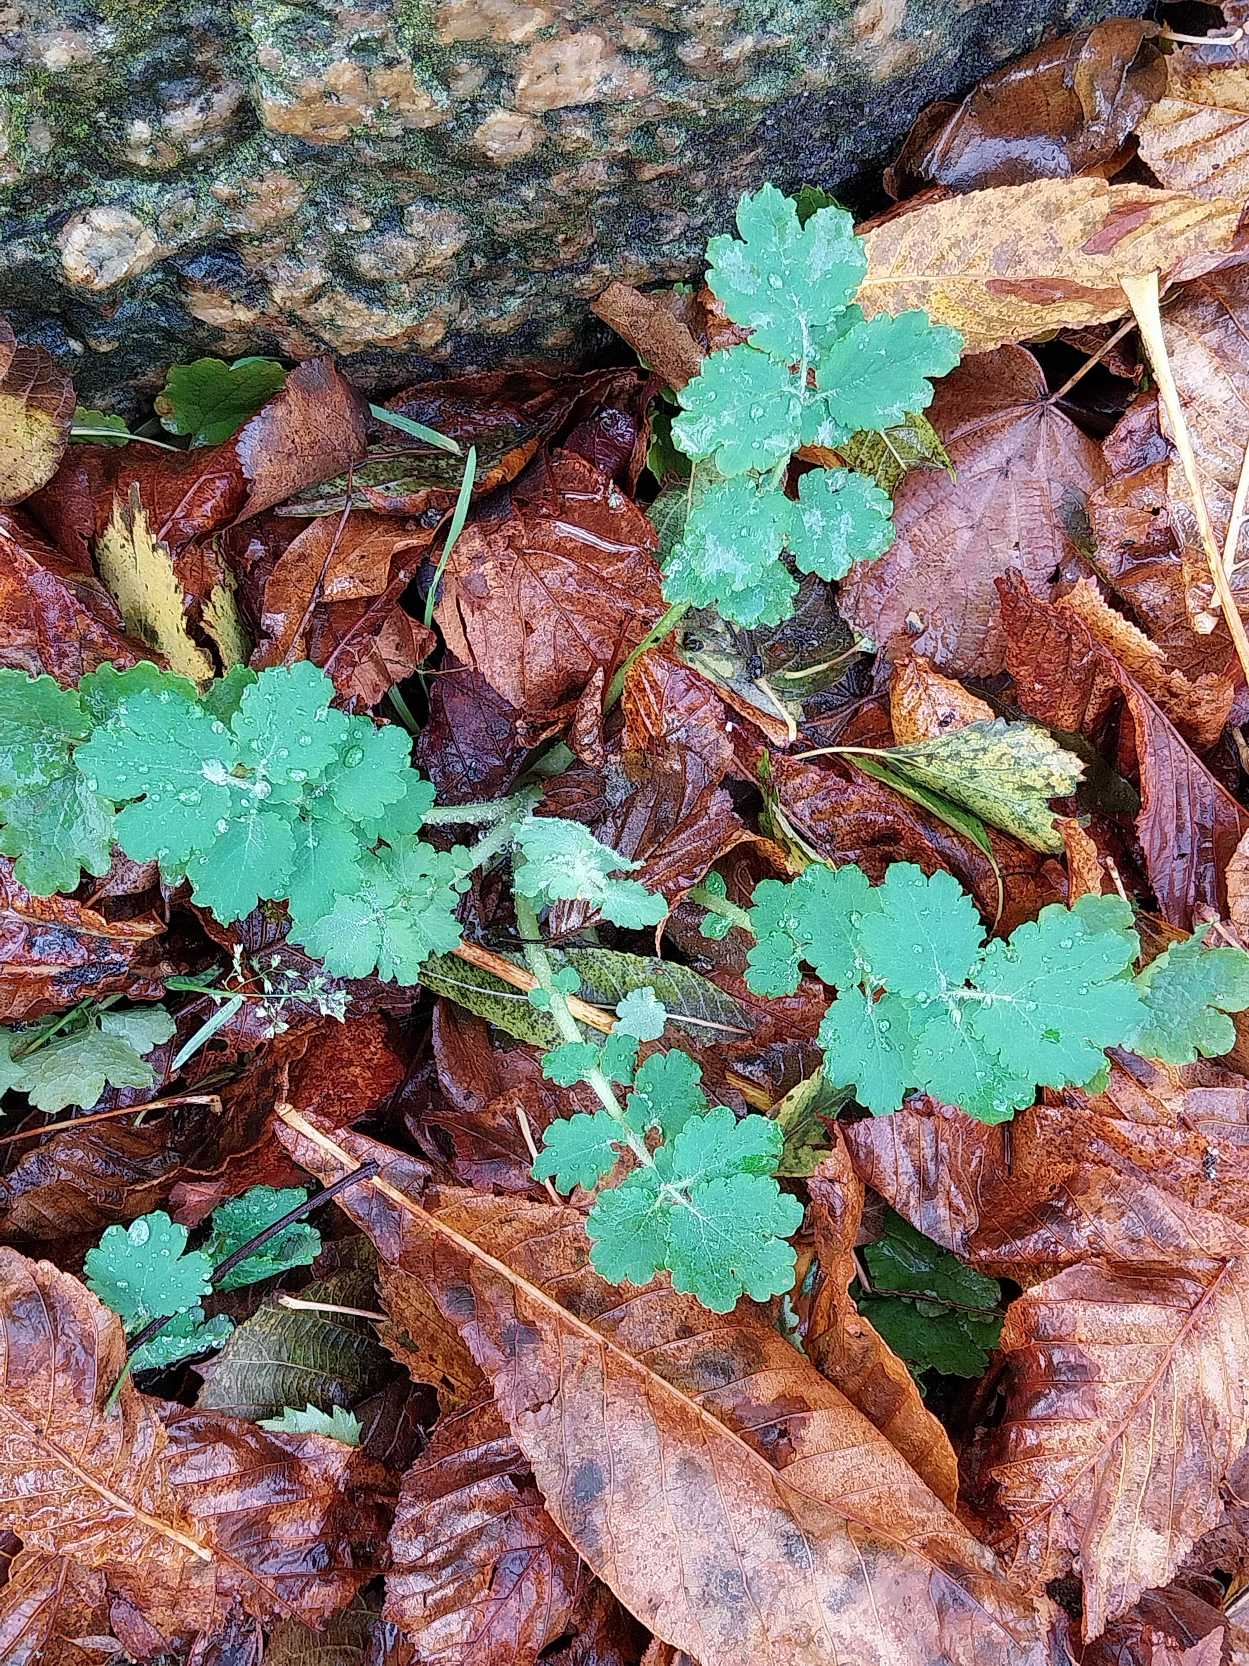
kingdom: Plantae
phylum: Tracheophyta
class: Magnoliopsida
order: Ranunculales
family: Papaveraceae
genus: Chelidonium
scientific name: Chelidonium majus
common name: Svaleurt
